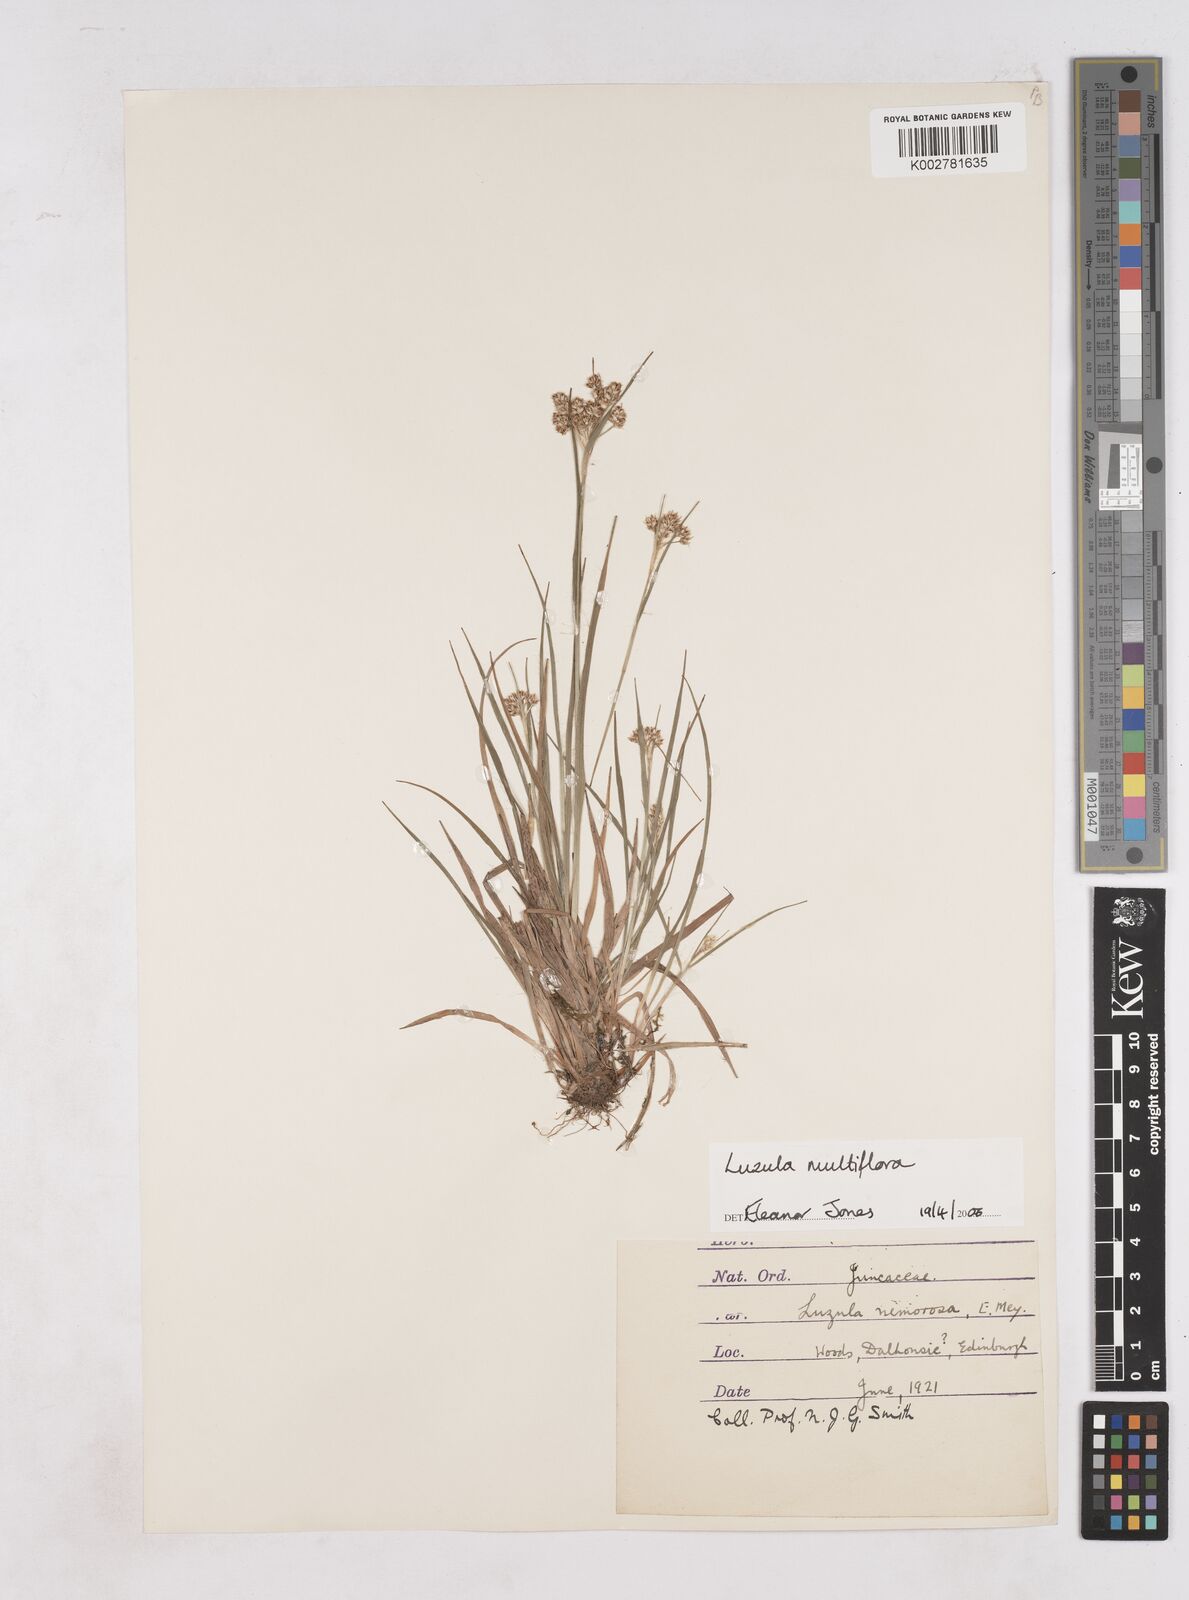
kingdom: Plantae
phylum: Tracheophyta
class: Liliopsida
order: Poales
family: Juncaceae
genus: Luzula
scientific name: Luzula luzuloides
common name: White wood-rush
